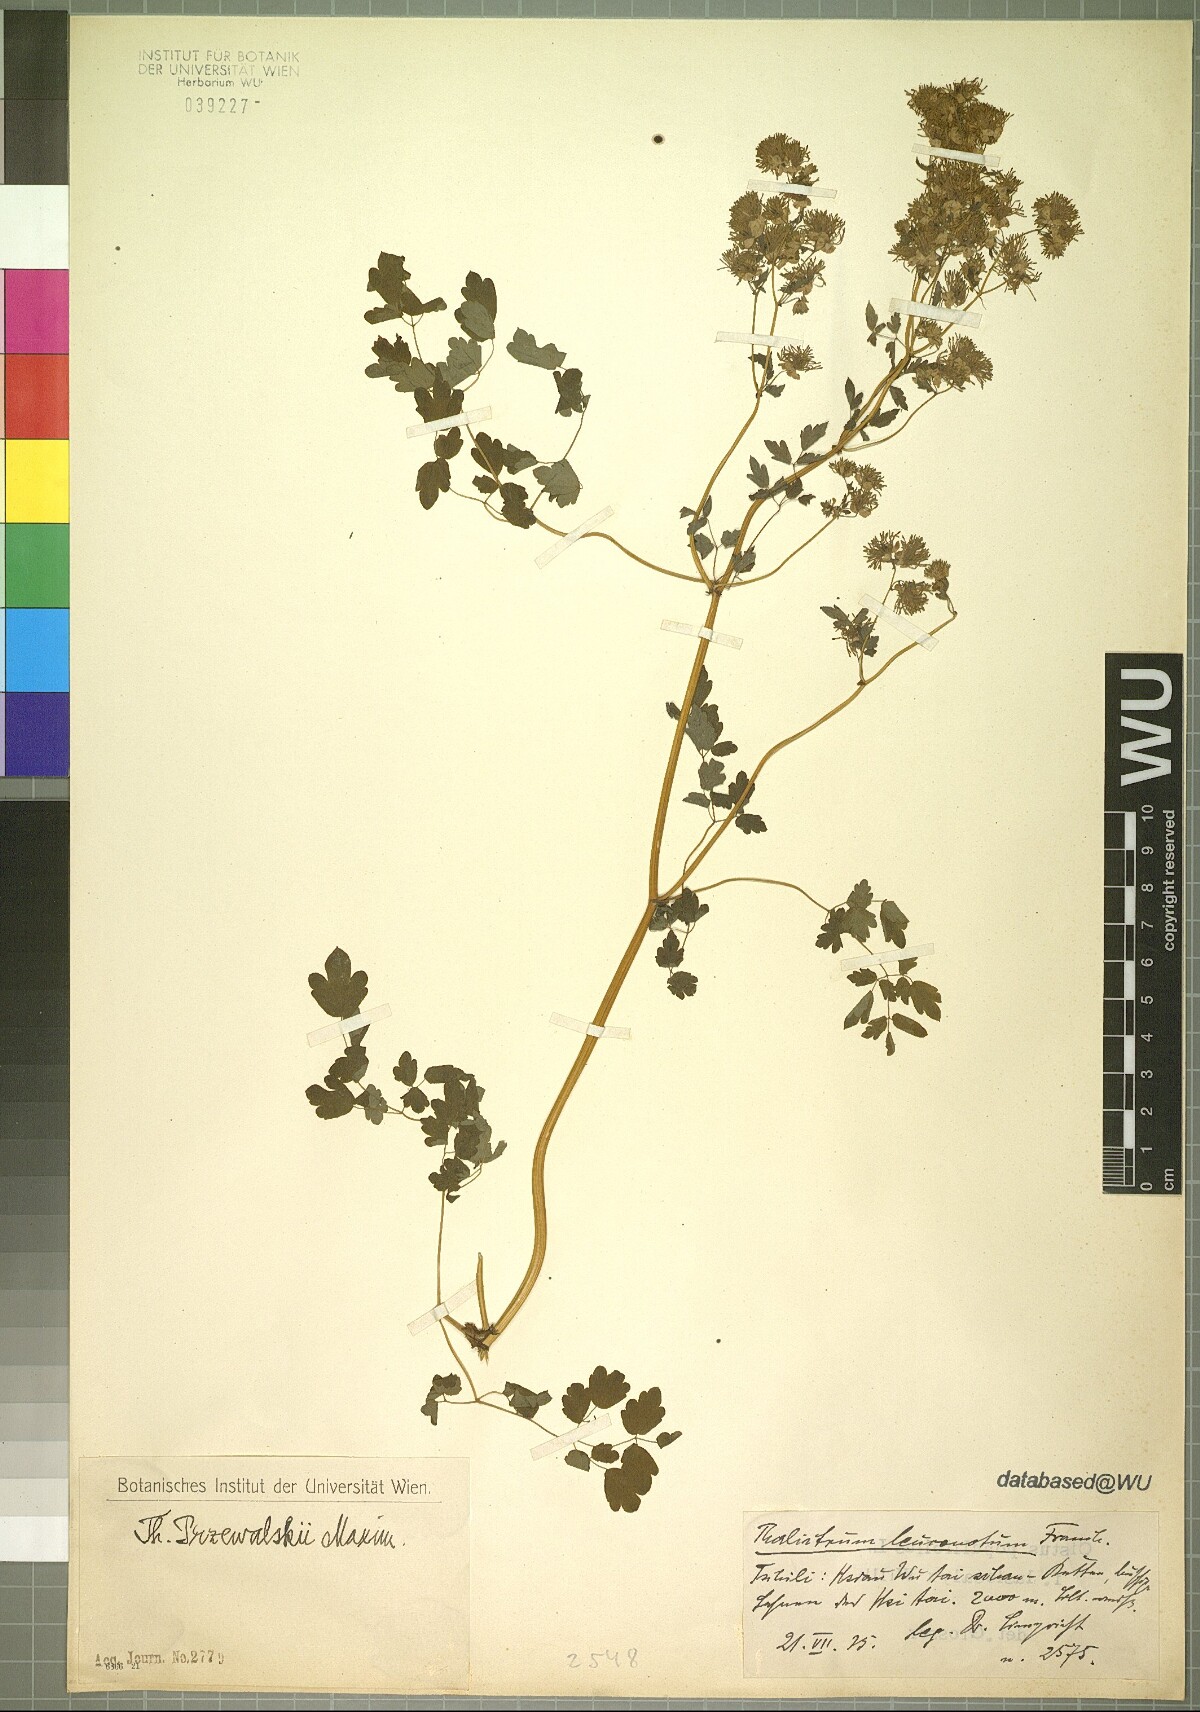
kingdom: Plantae
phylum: Tracheophyta
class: Magnoliopsida
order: Ranunculales
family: Ranunculaceae
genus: Thalictrum
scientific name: Thalictrum przewalskii
